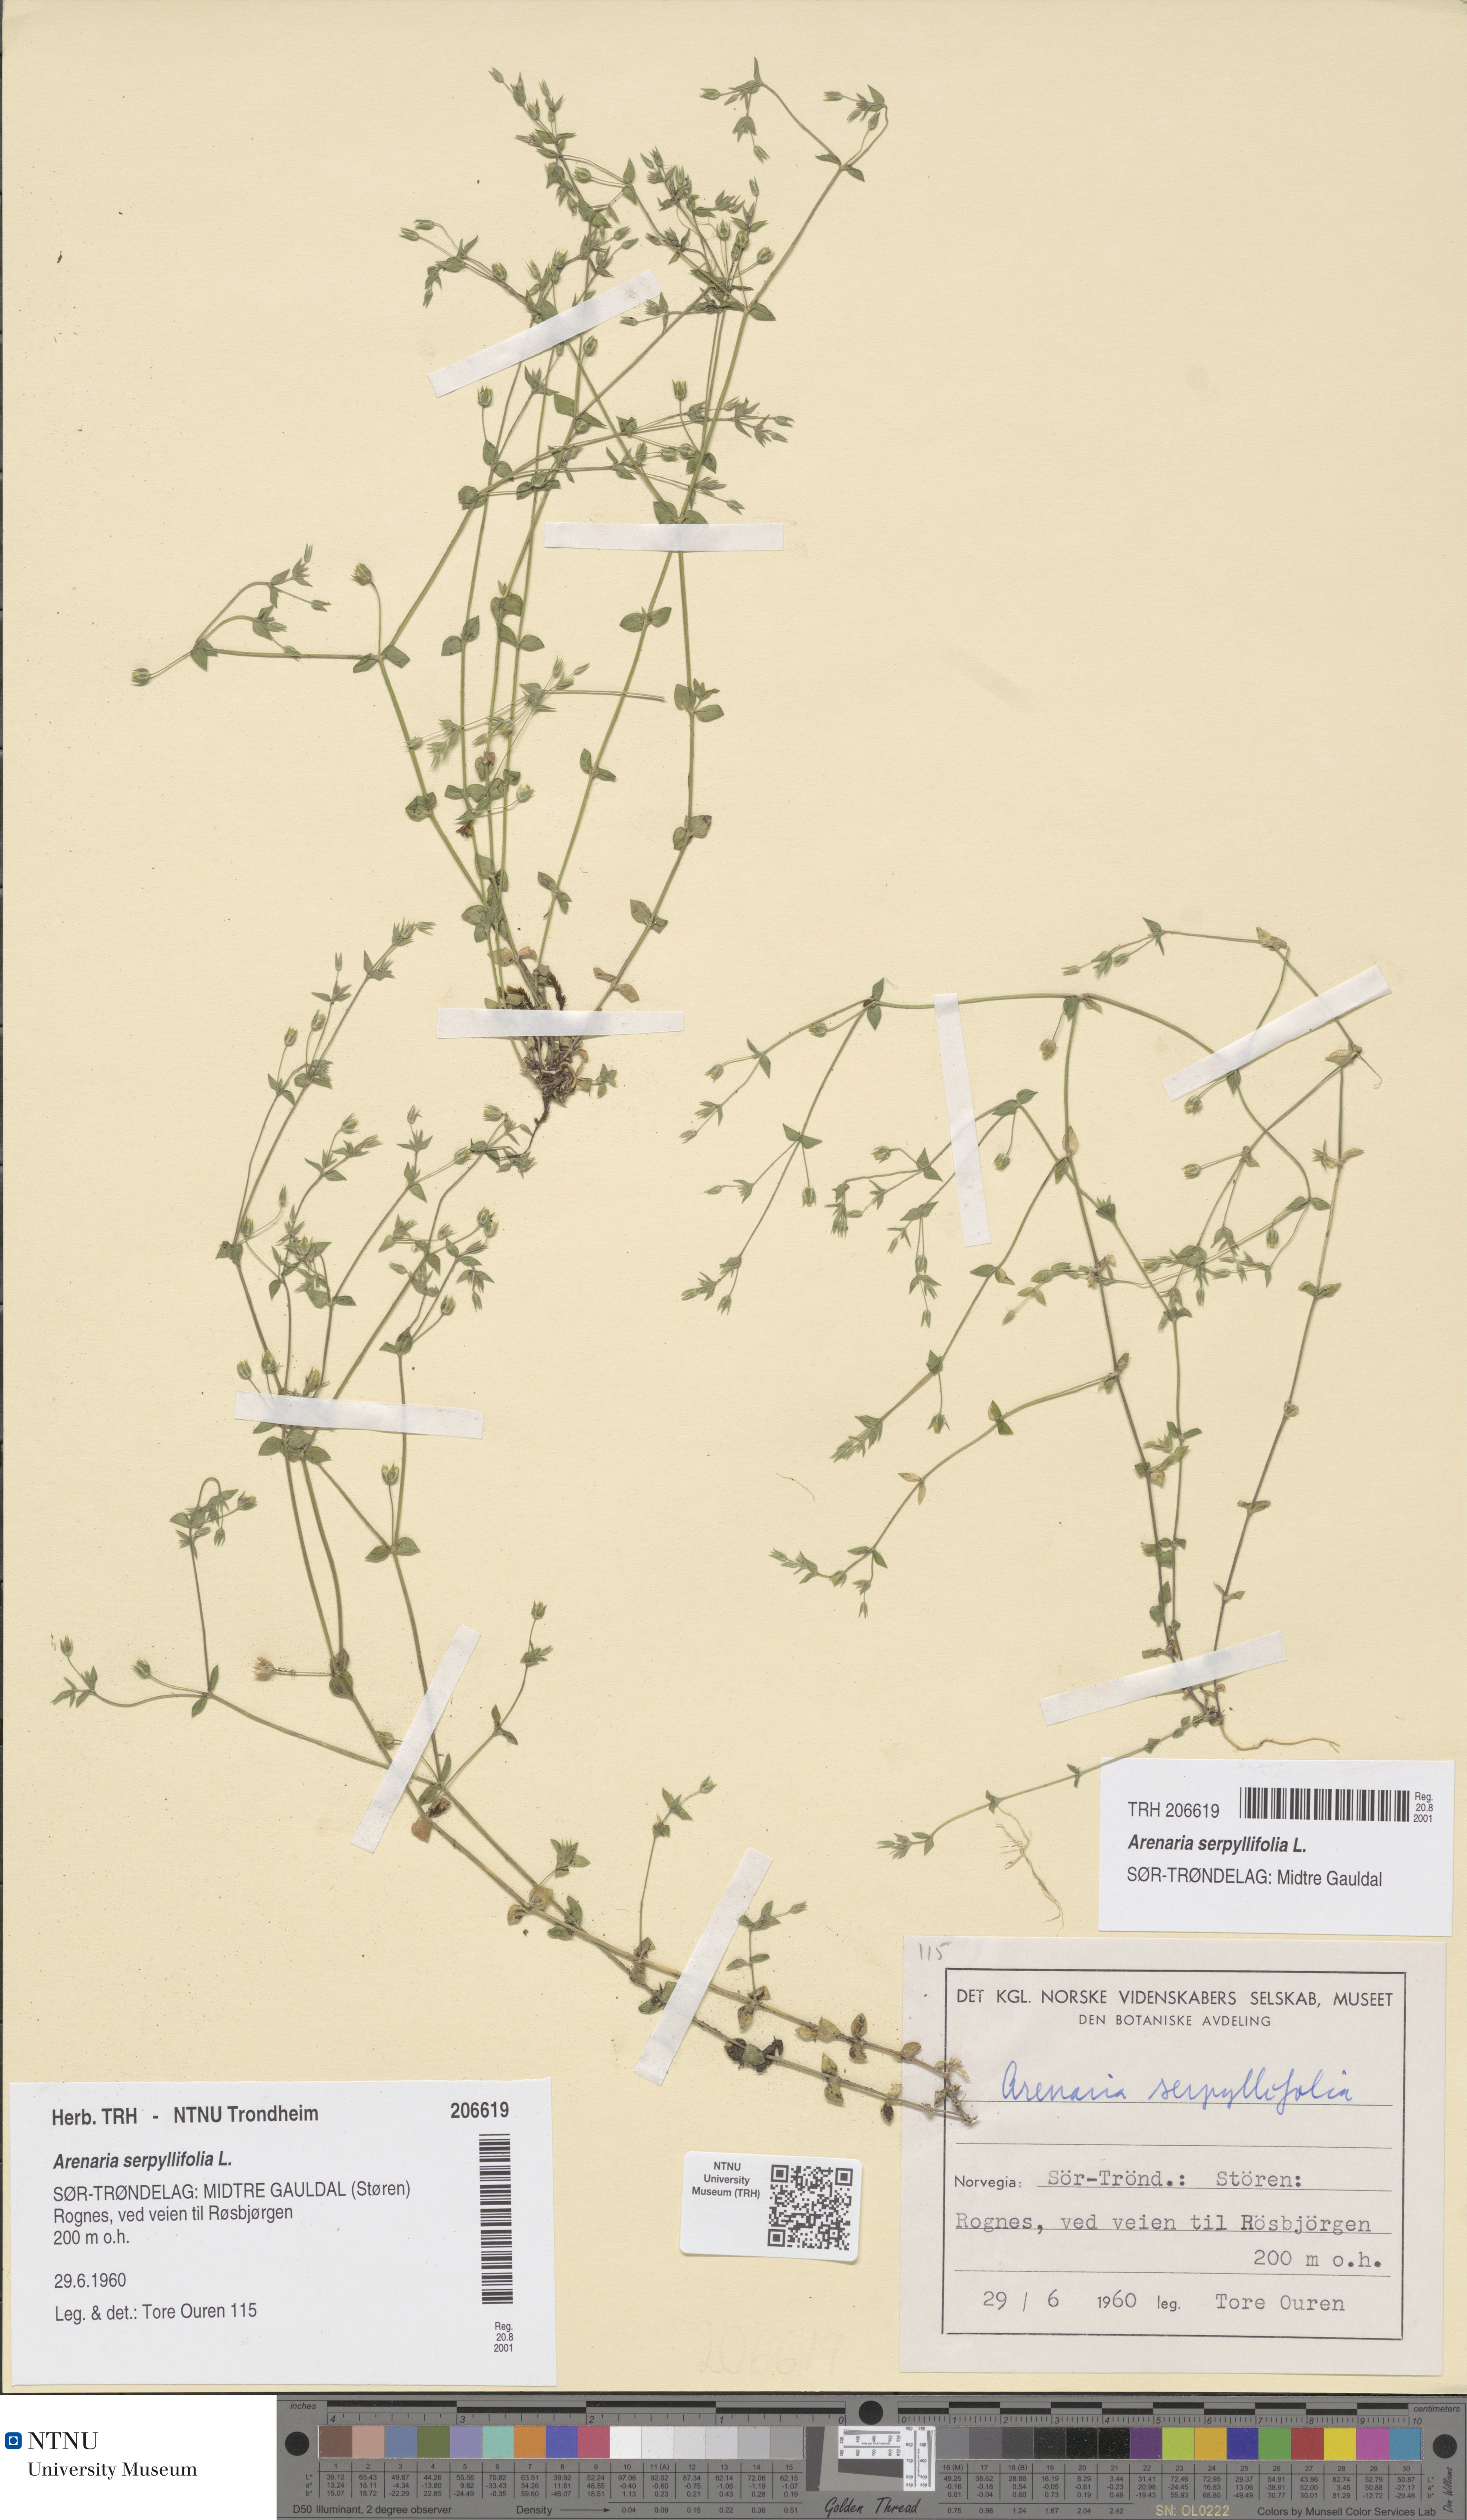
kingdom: Plantae
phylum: Tracheophyta
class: Magnoliopsida
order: Caryophyllales
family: Caryophyllaceae
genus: Arenaria
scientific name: Arenaria serpyllifolia
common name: Thyme-leaved sandwort
